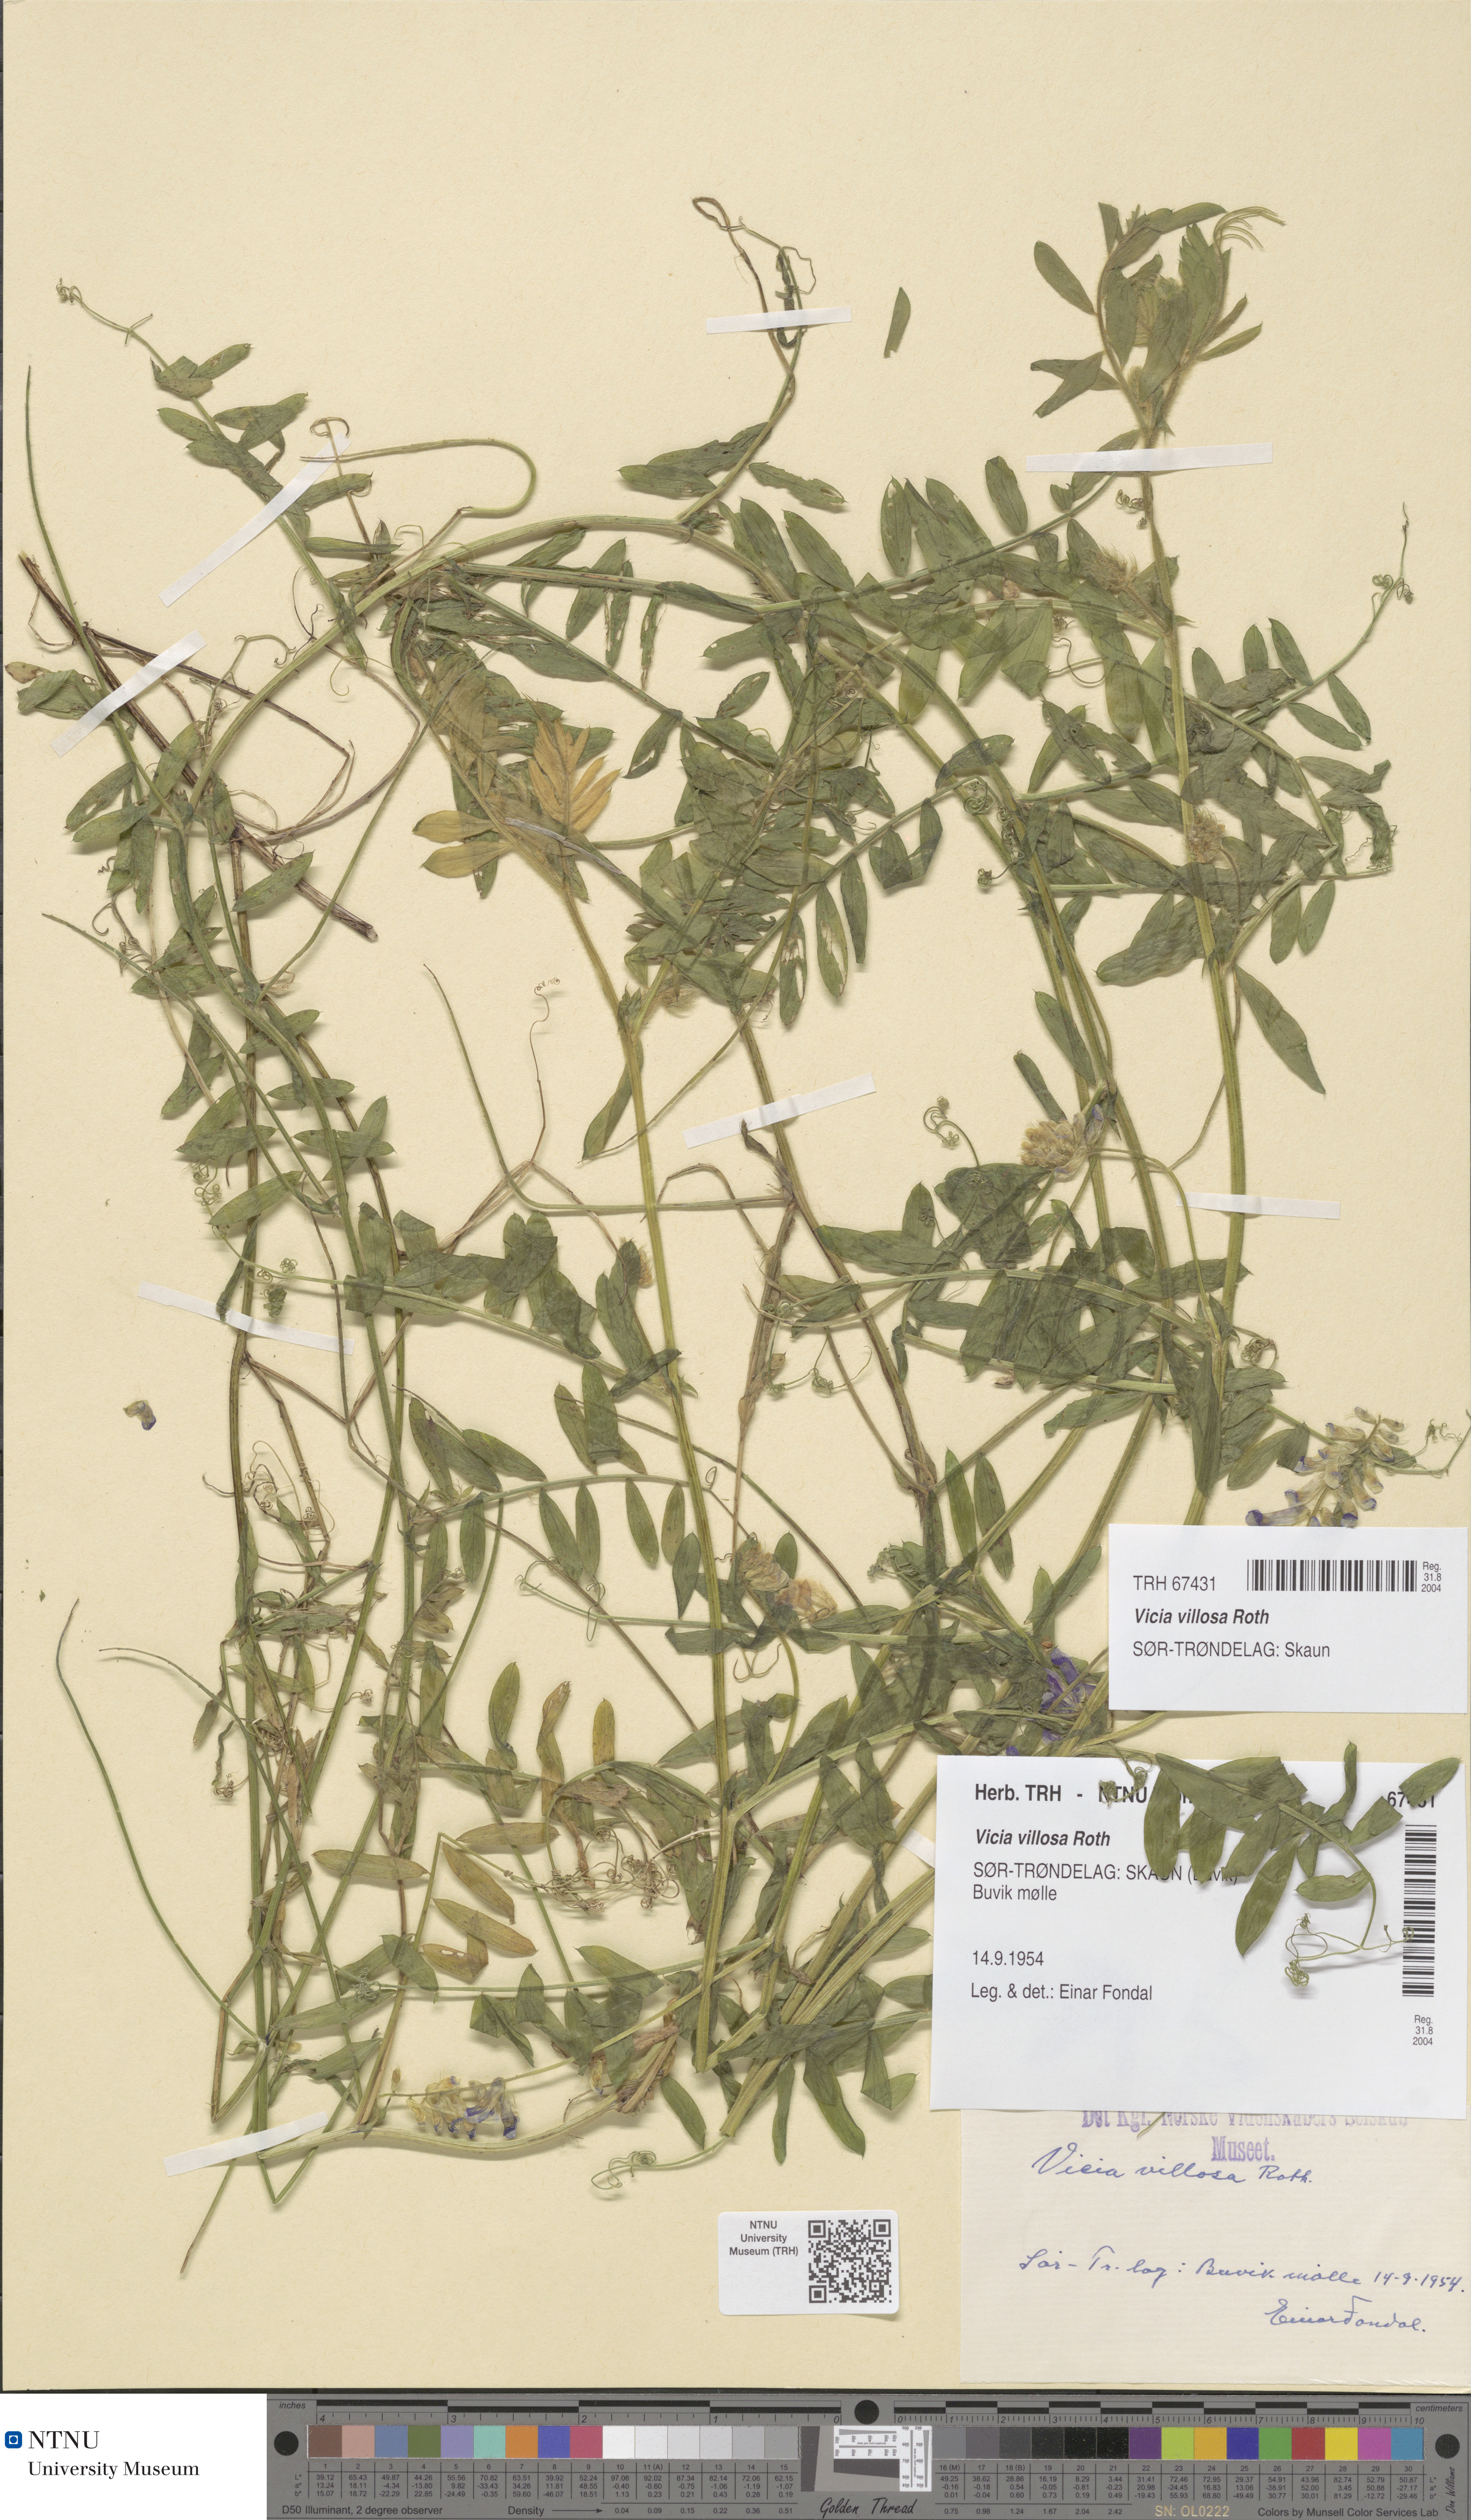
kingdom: Plantae
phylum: Tracheophyta
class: Magnoliopsida
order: Fabales
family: Fabaceae
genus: Vicia
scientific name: Vicia villosa
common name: Fodder vetch
